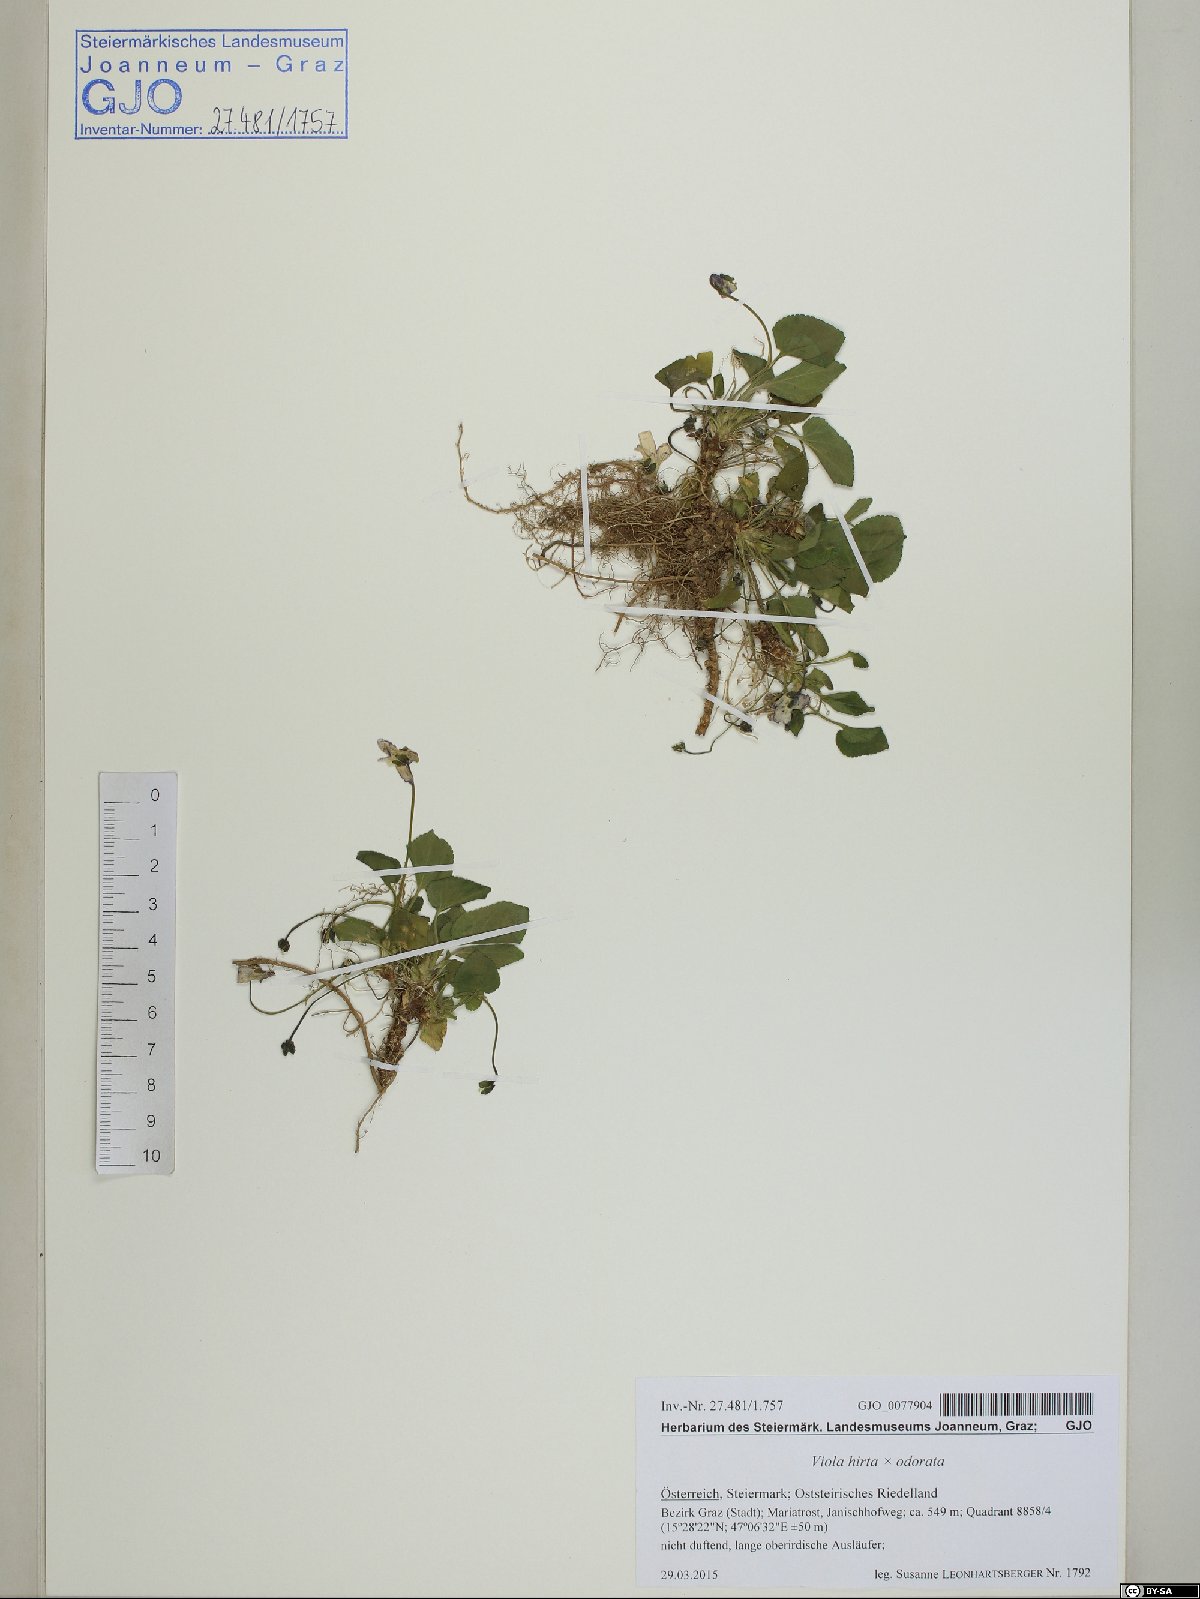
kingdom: Plantae
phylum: Tracheophyta
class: Magnoliopsida
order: Malpighiales
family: Violaceae
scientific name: Violaceae
